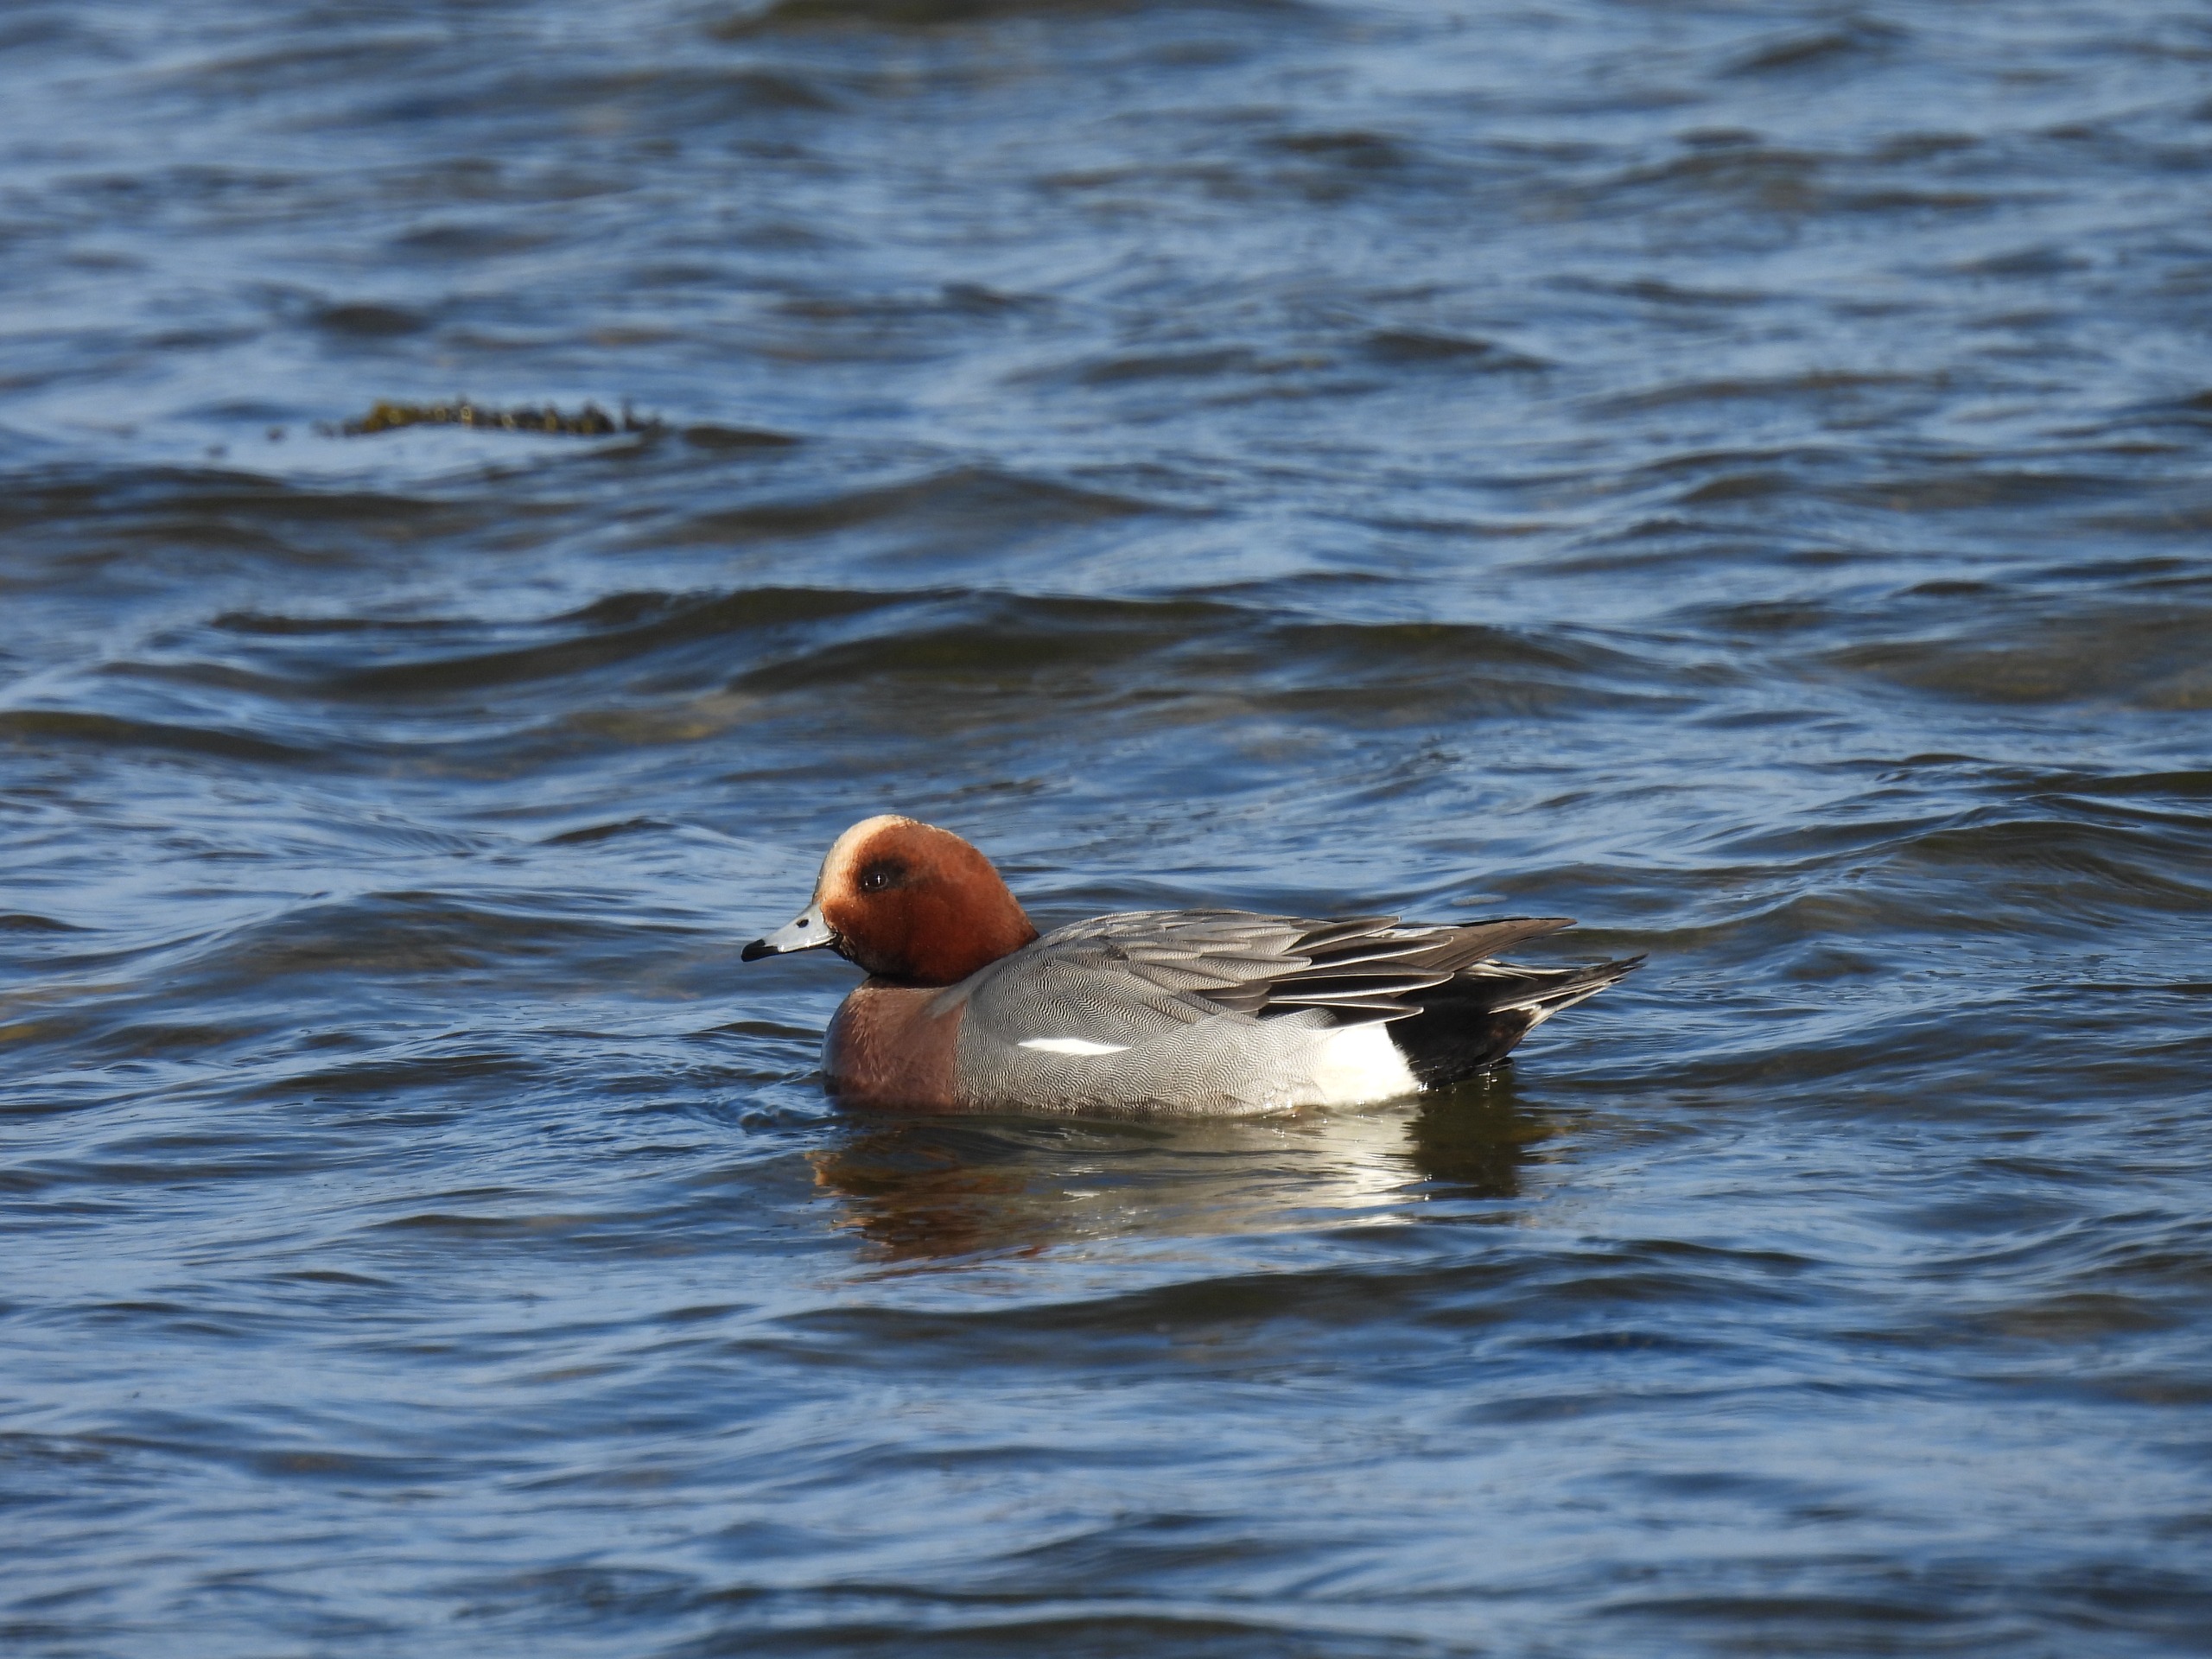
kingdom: Animalia
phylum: Chordata
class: Aves
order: Anseriformes
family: Anatidae
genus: Mareca
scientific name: Mareca penelope
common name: Pibeand
